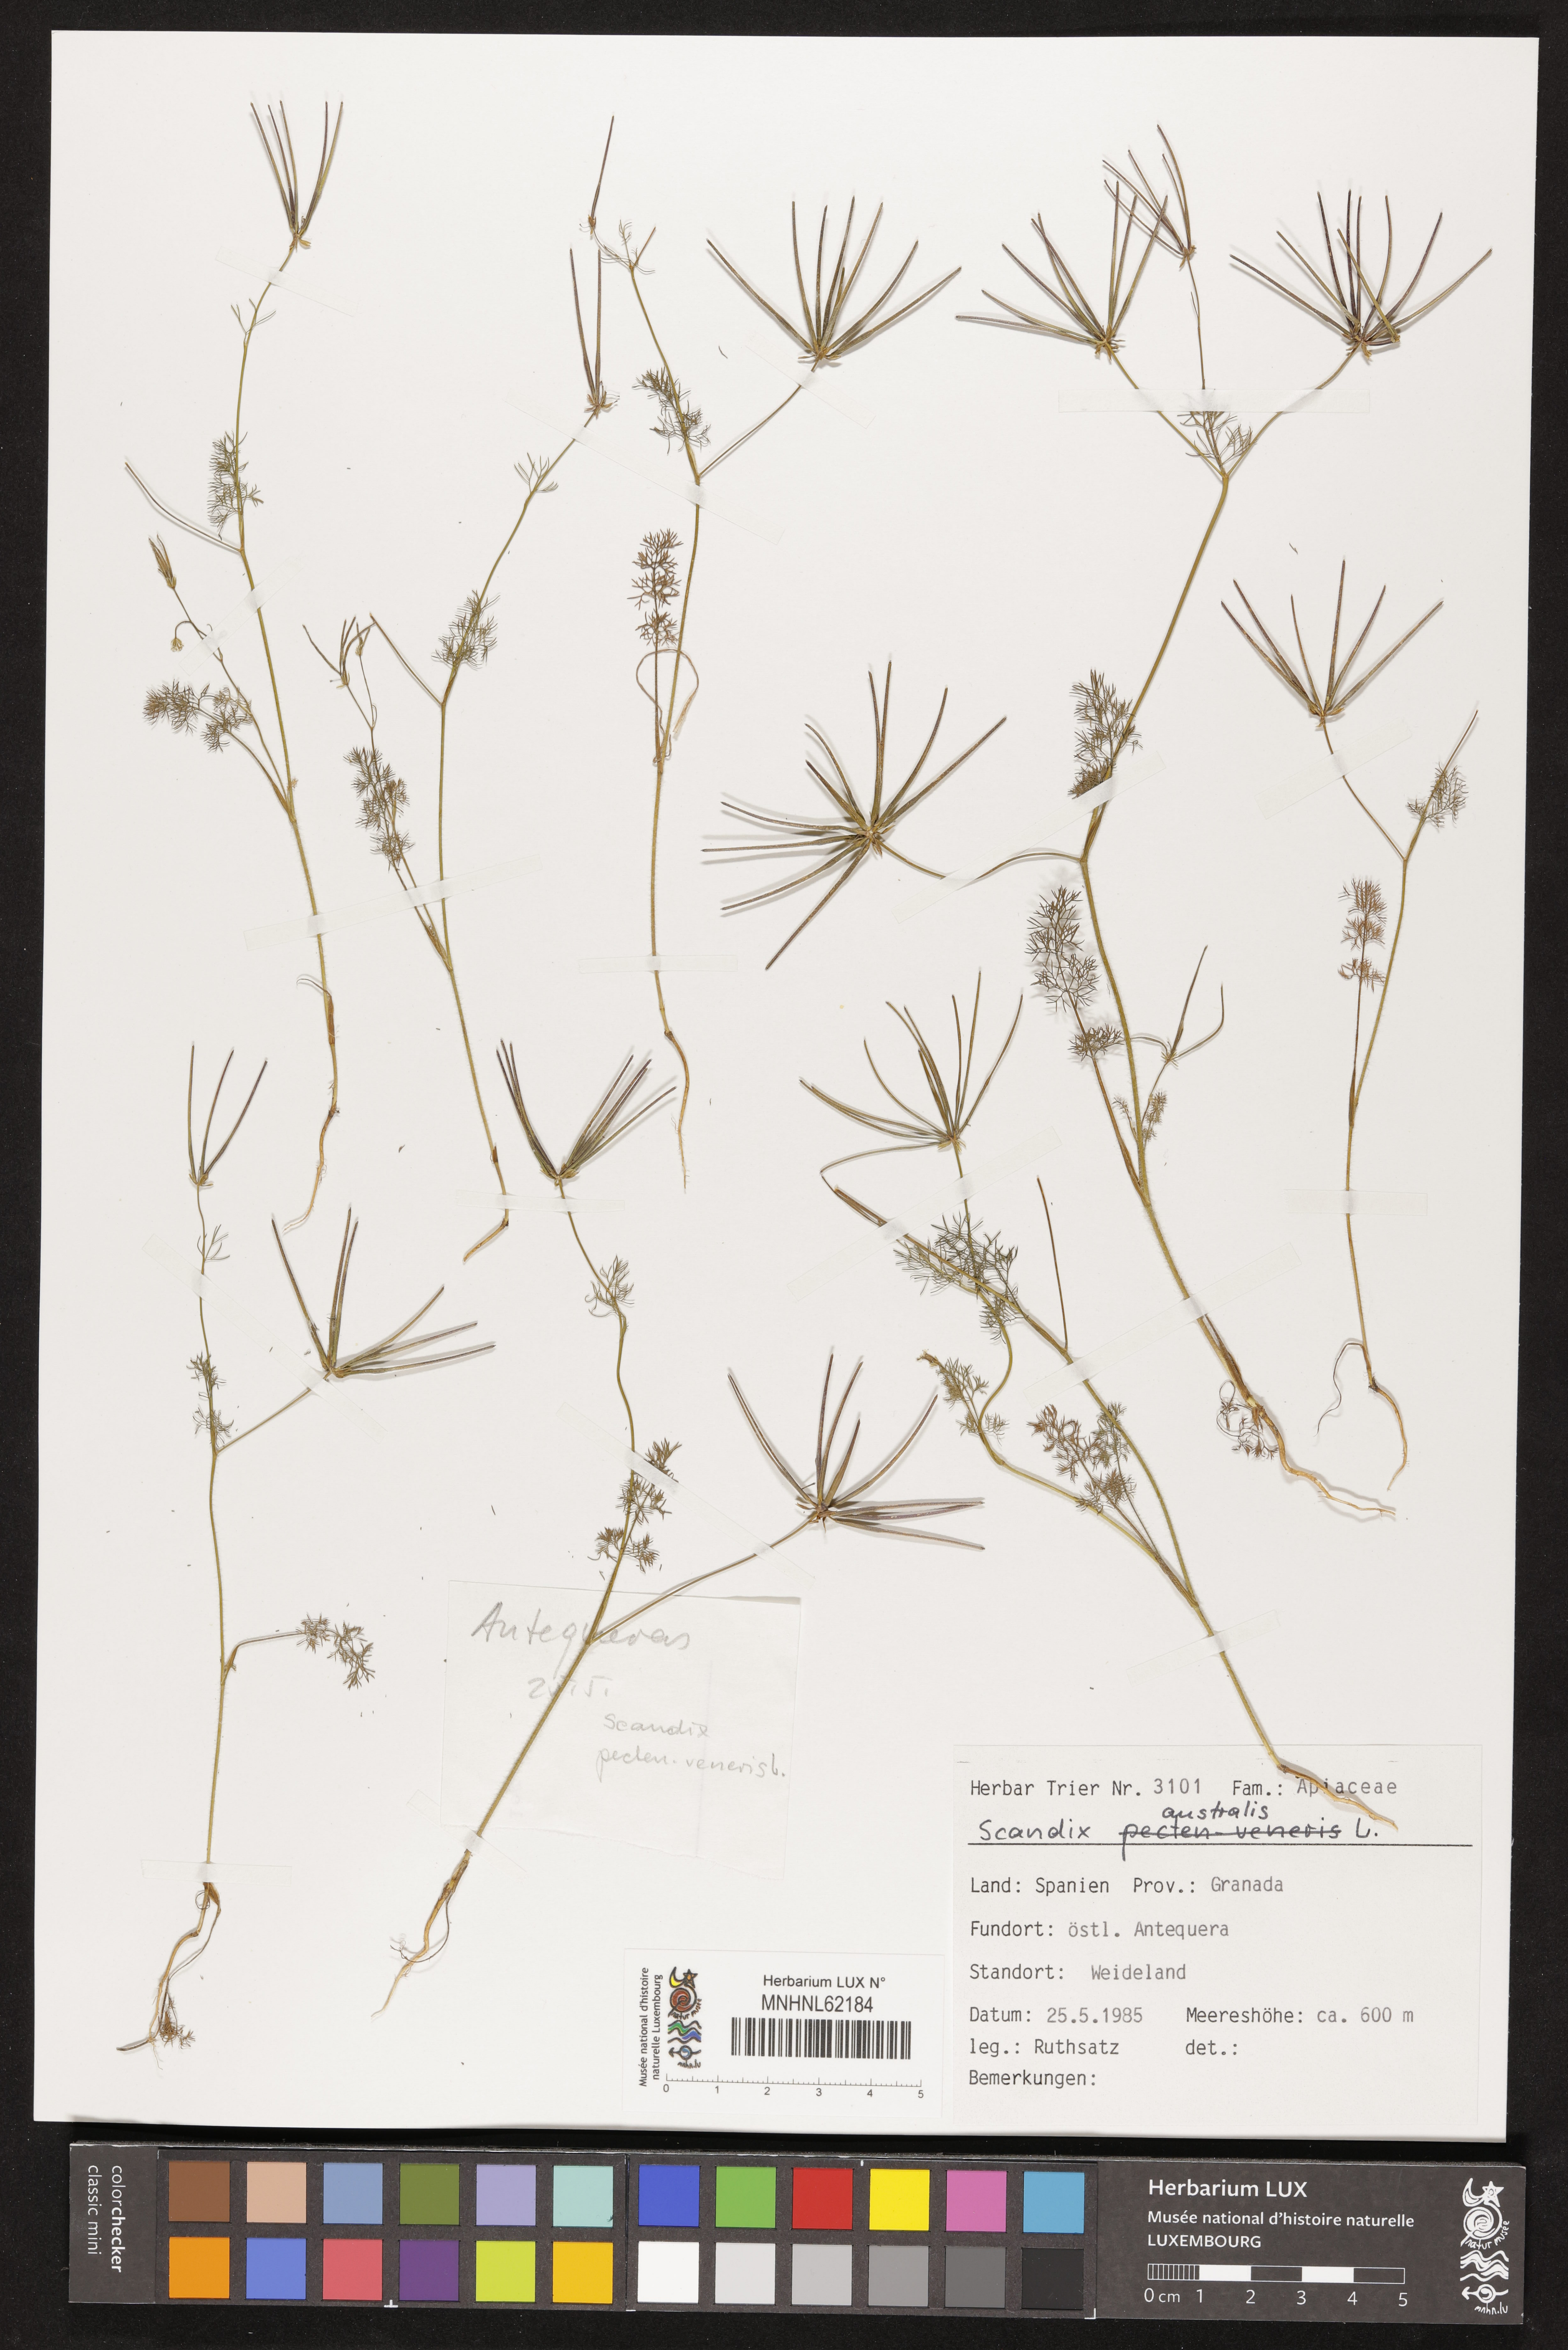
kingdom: Plantae
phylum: Tracheophyta
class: Magnoliopsida
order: Apiales
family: Apiaceae
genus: Scandix
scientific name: Scandix australis
